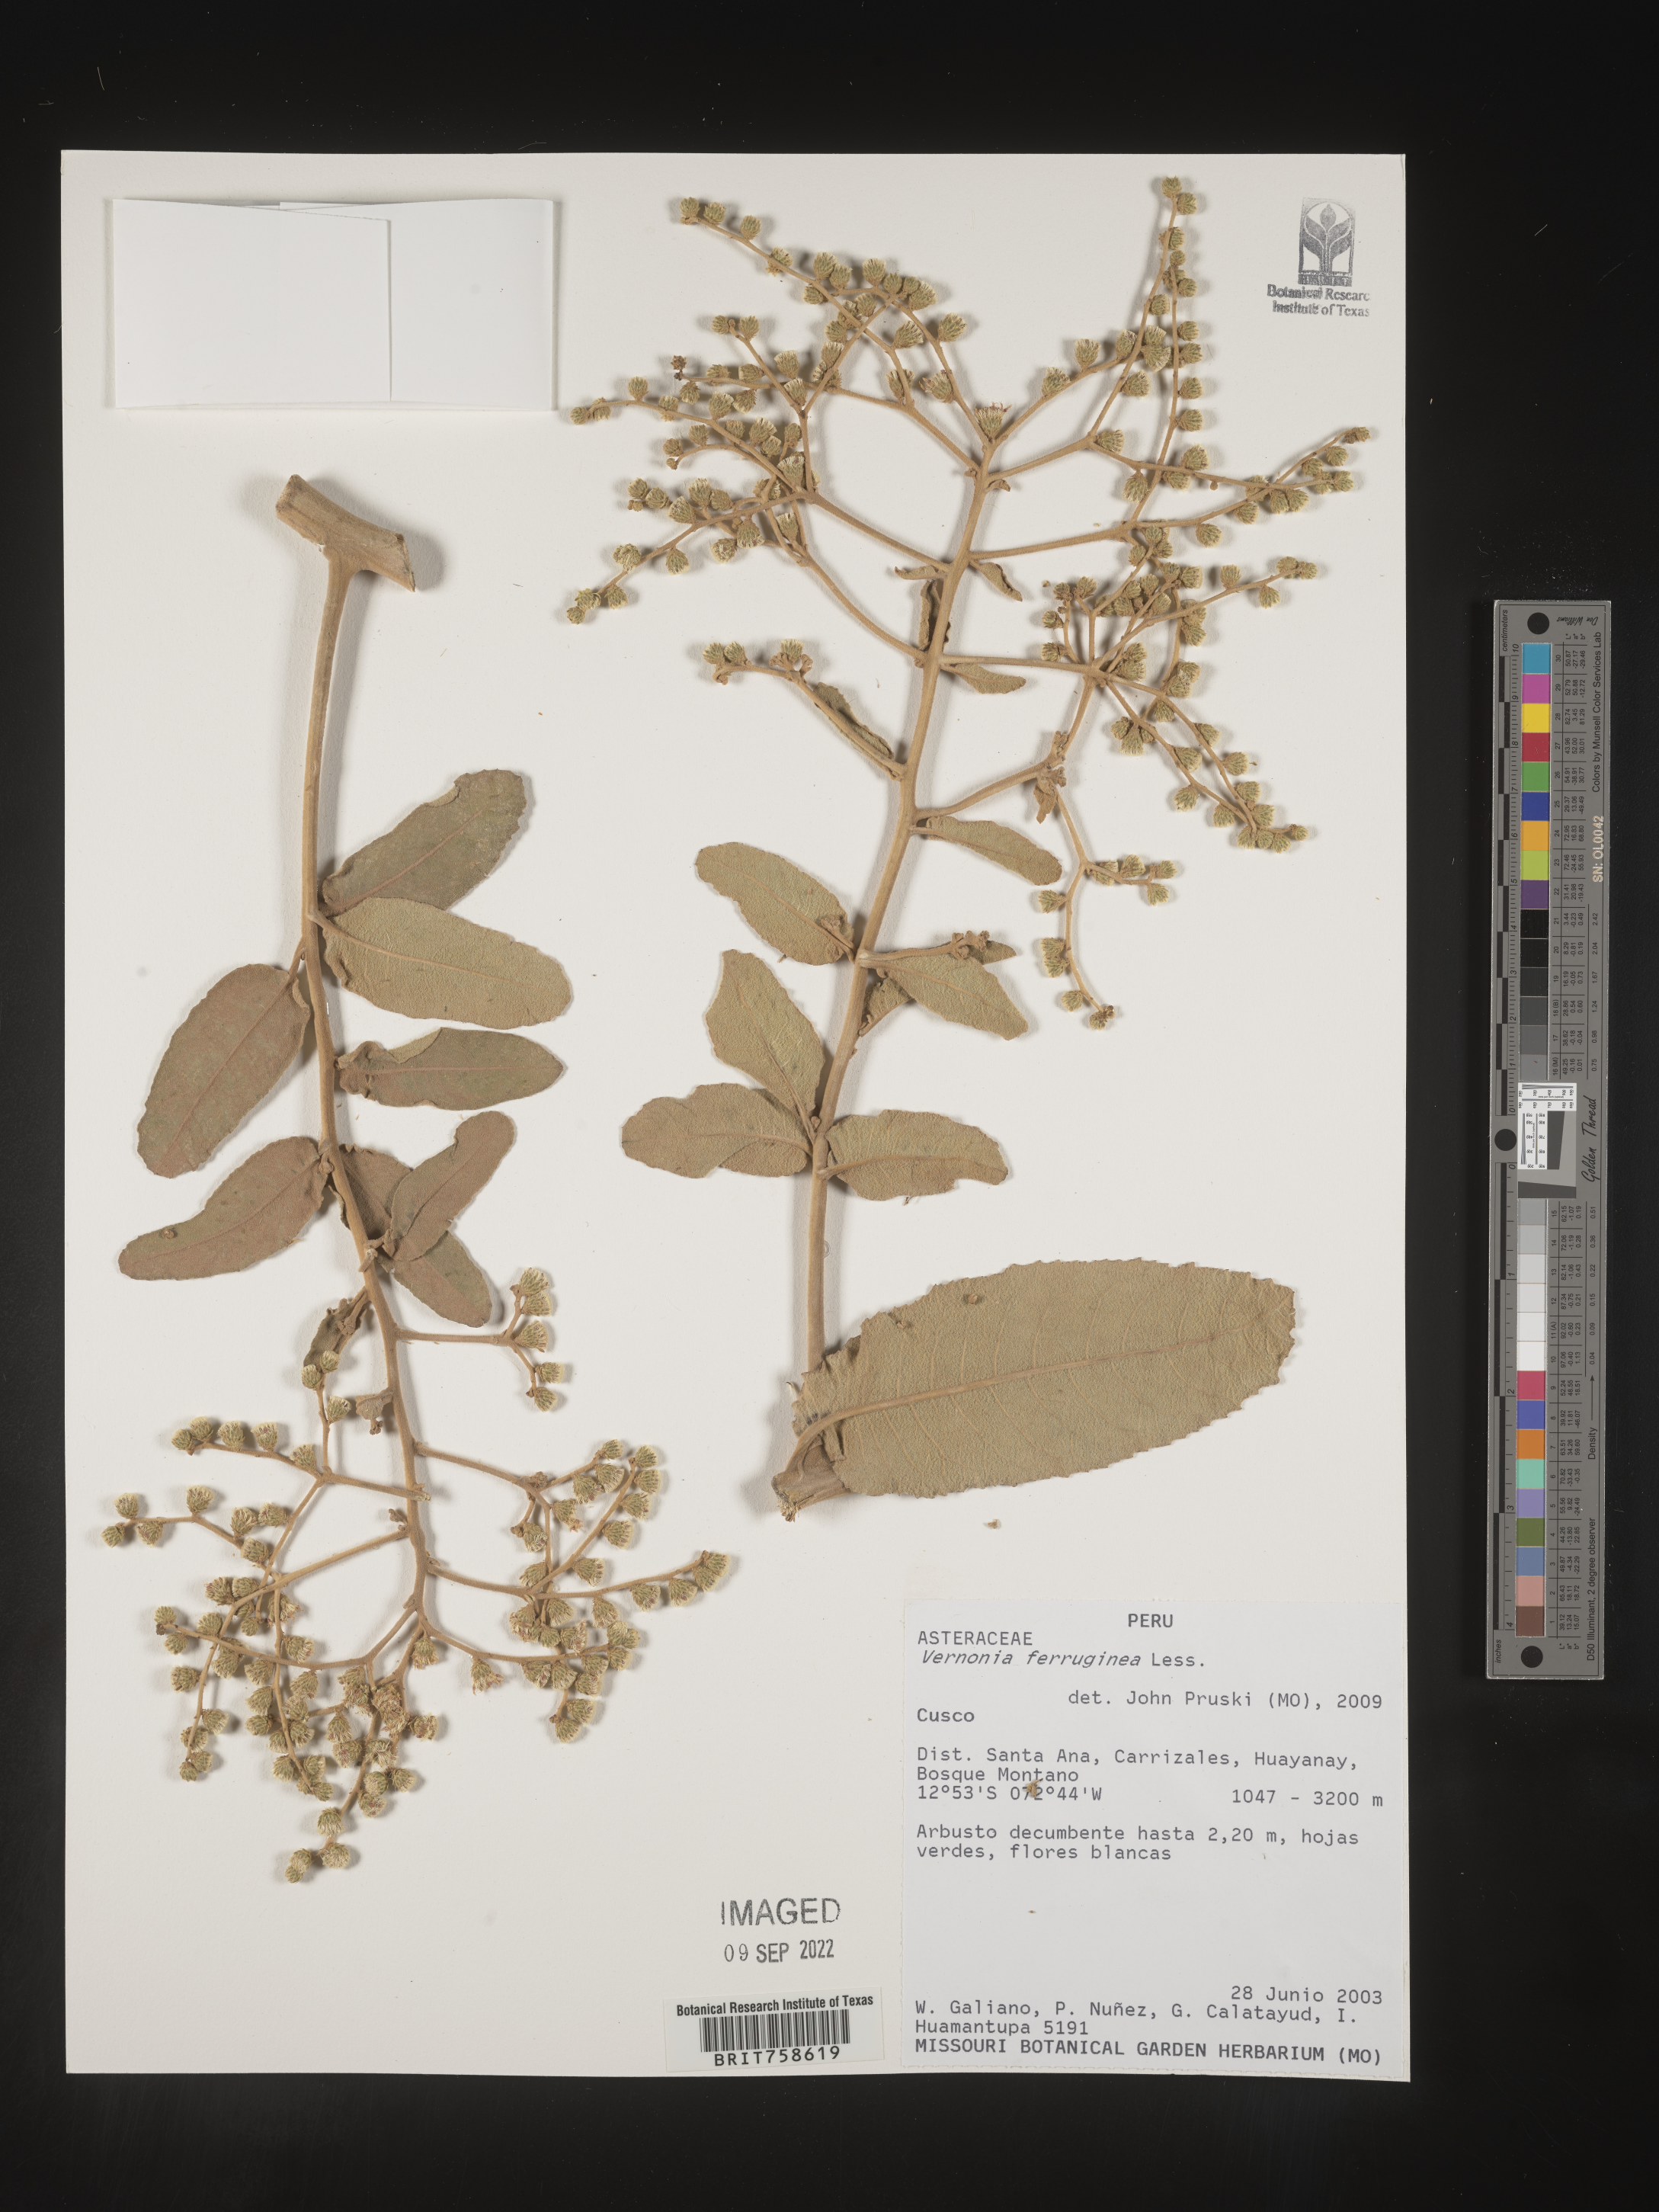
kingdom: Plantae
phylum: Tracheophyta
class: Magnoliopsida
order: Asterales
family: Asteraceae
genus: Vernonia
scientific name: Vernonia
